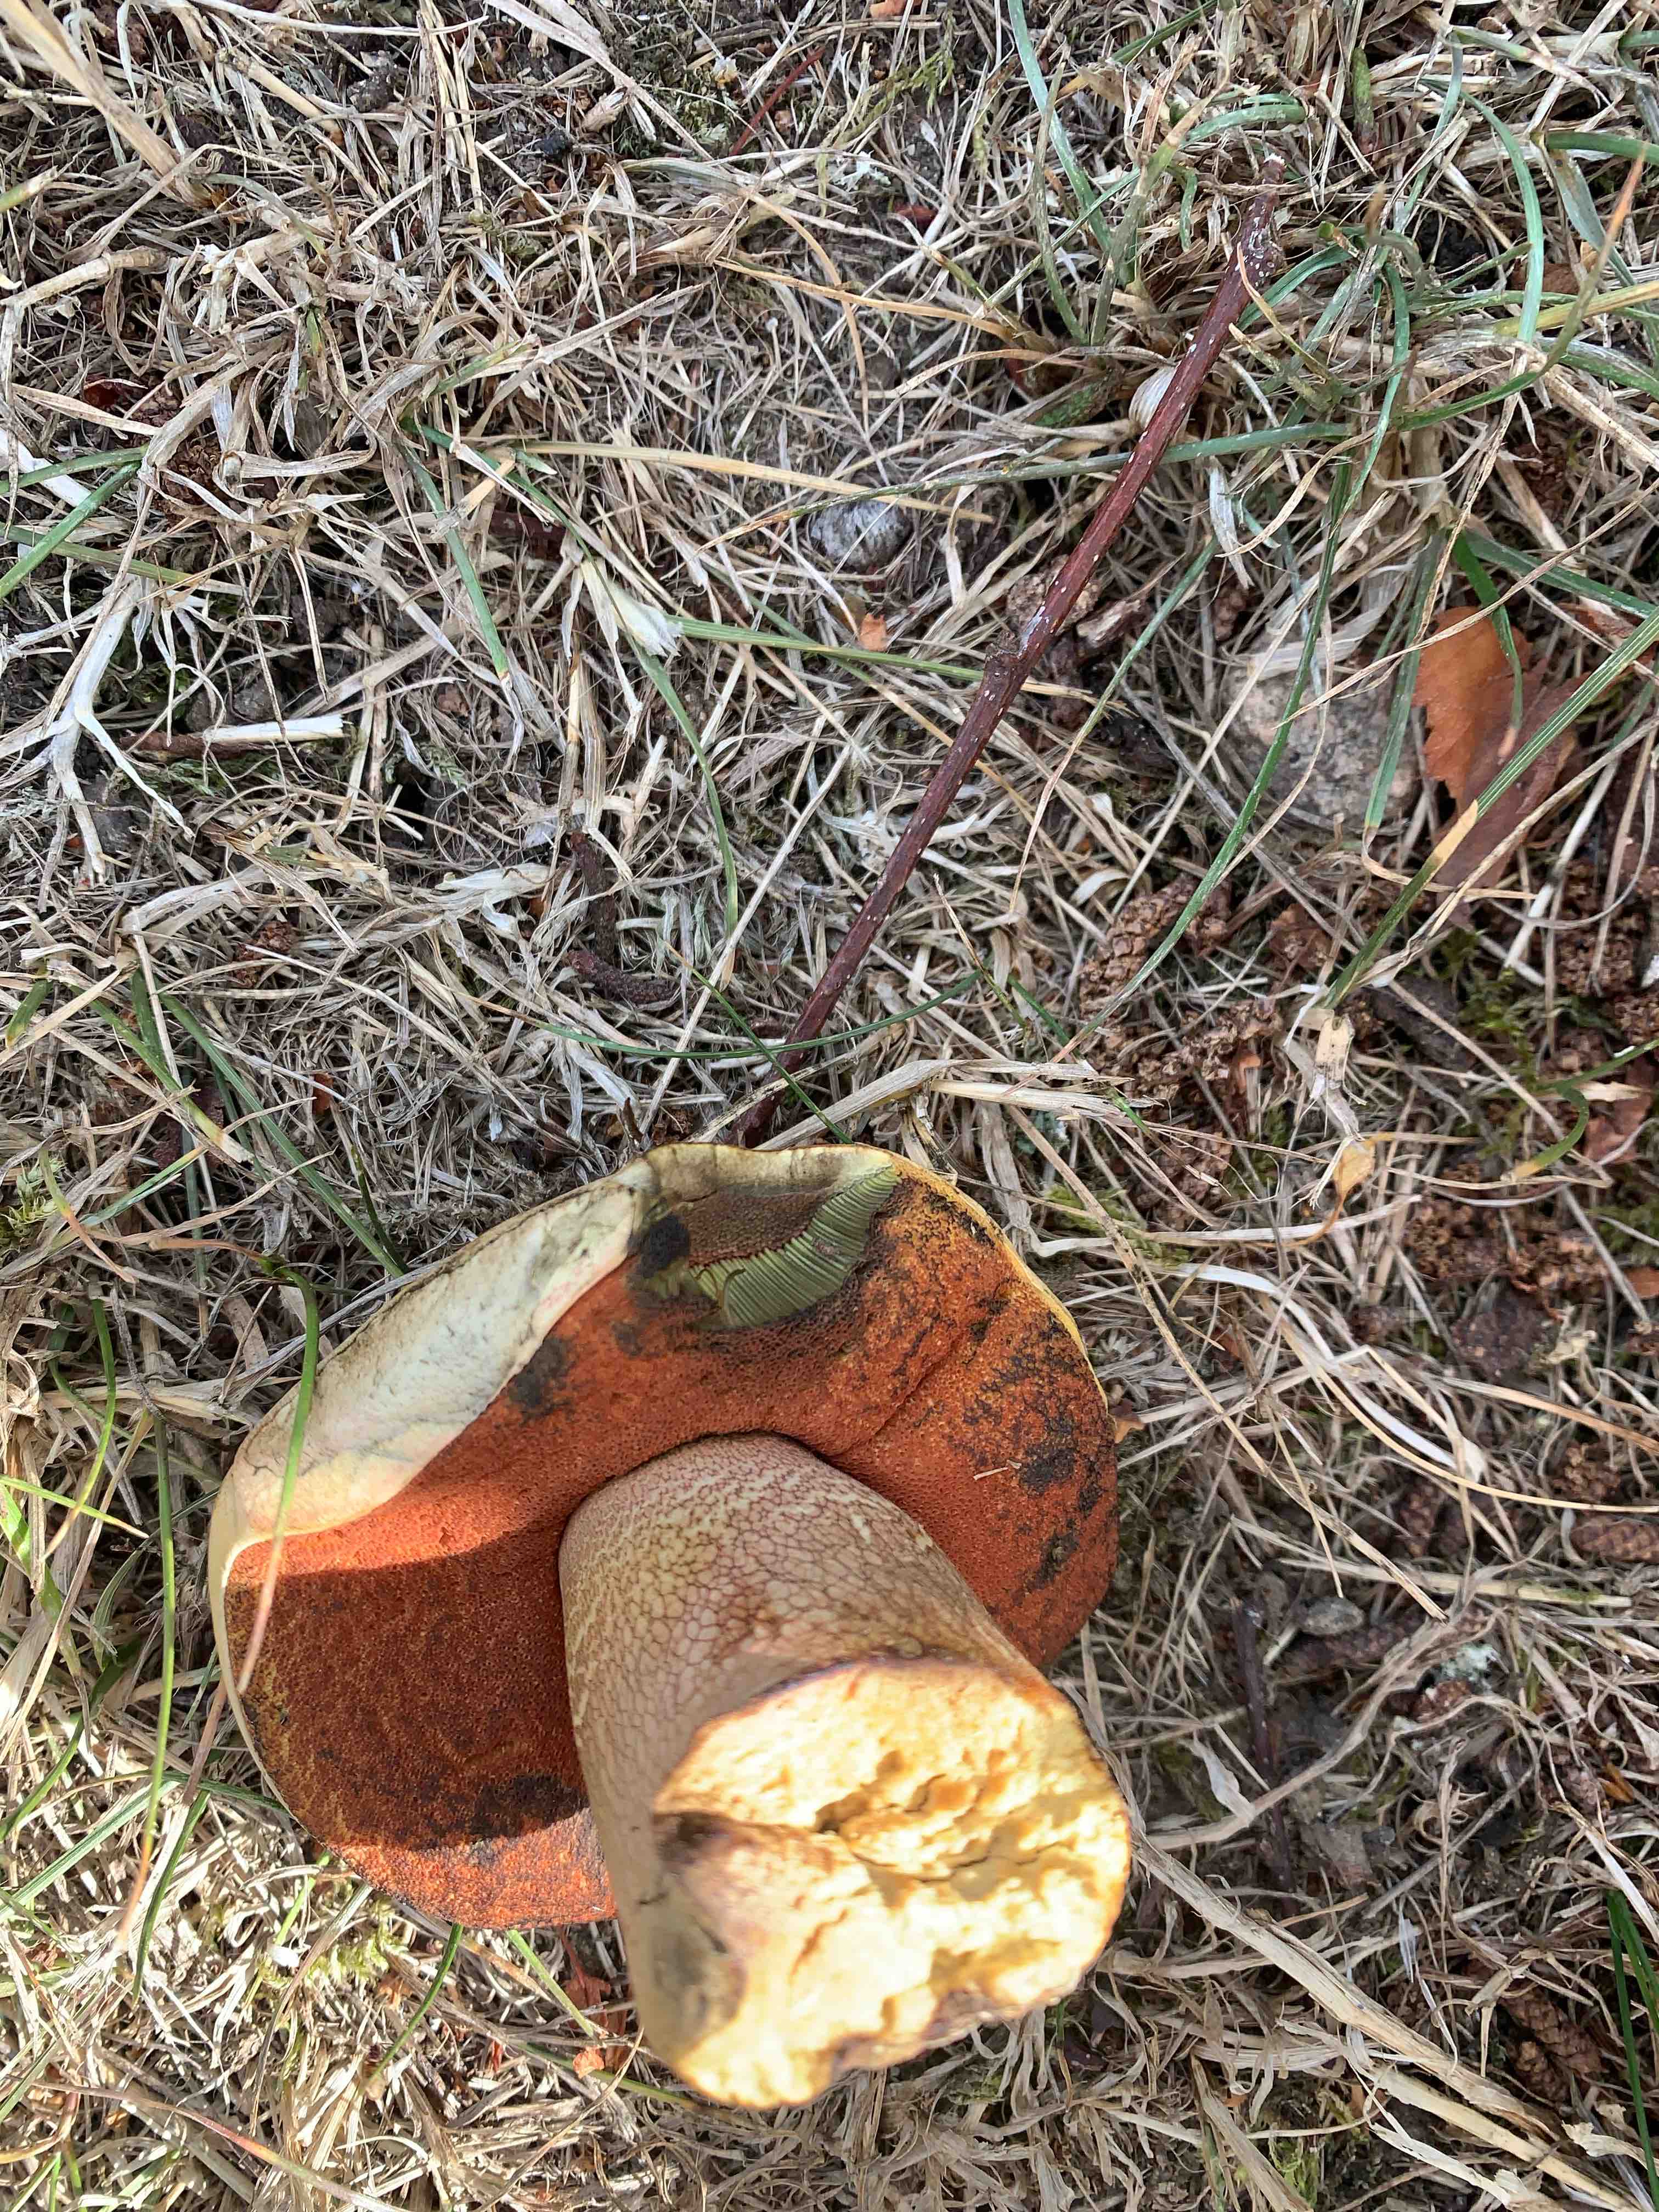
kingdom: Fungi
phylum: Basidiomycota
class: Agaricomycetes
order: Boletales
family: Boletaceae
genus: Suillellus
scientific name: Suillellus luridus
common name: netstokket indigorørhat
